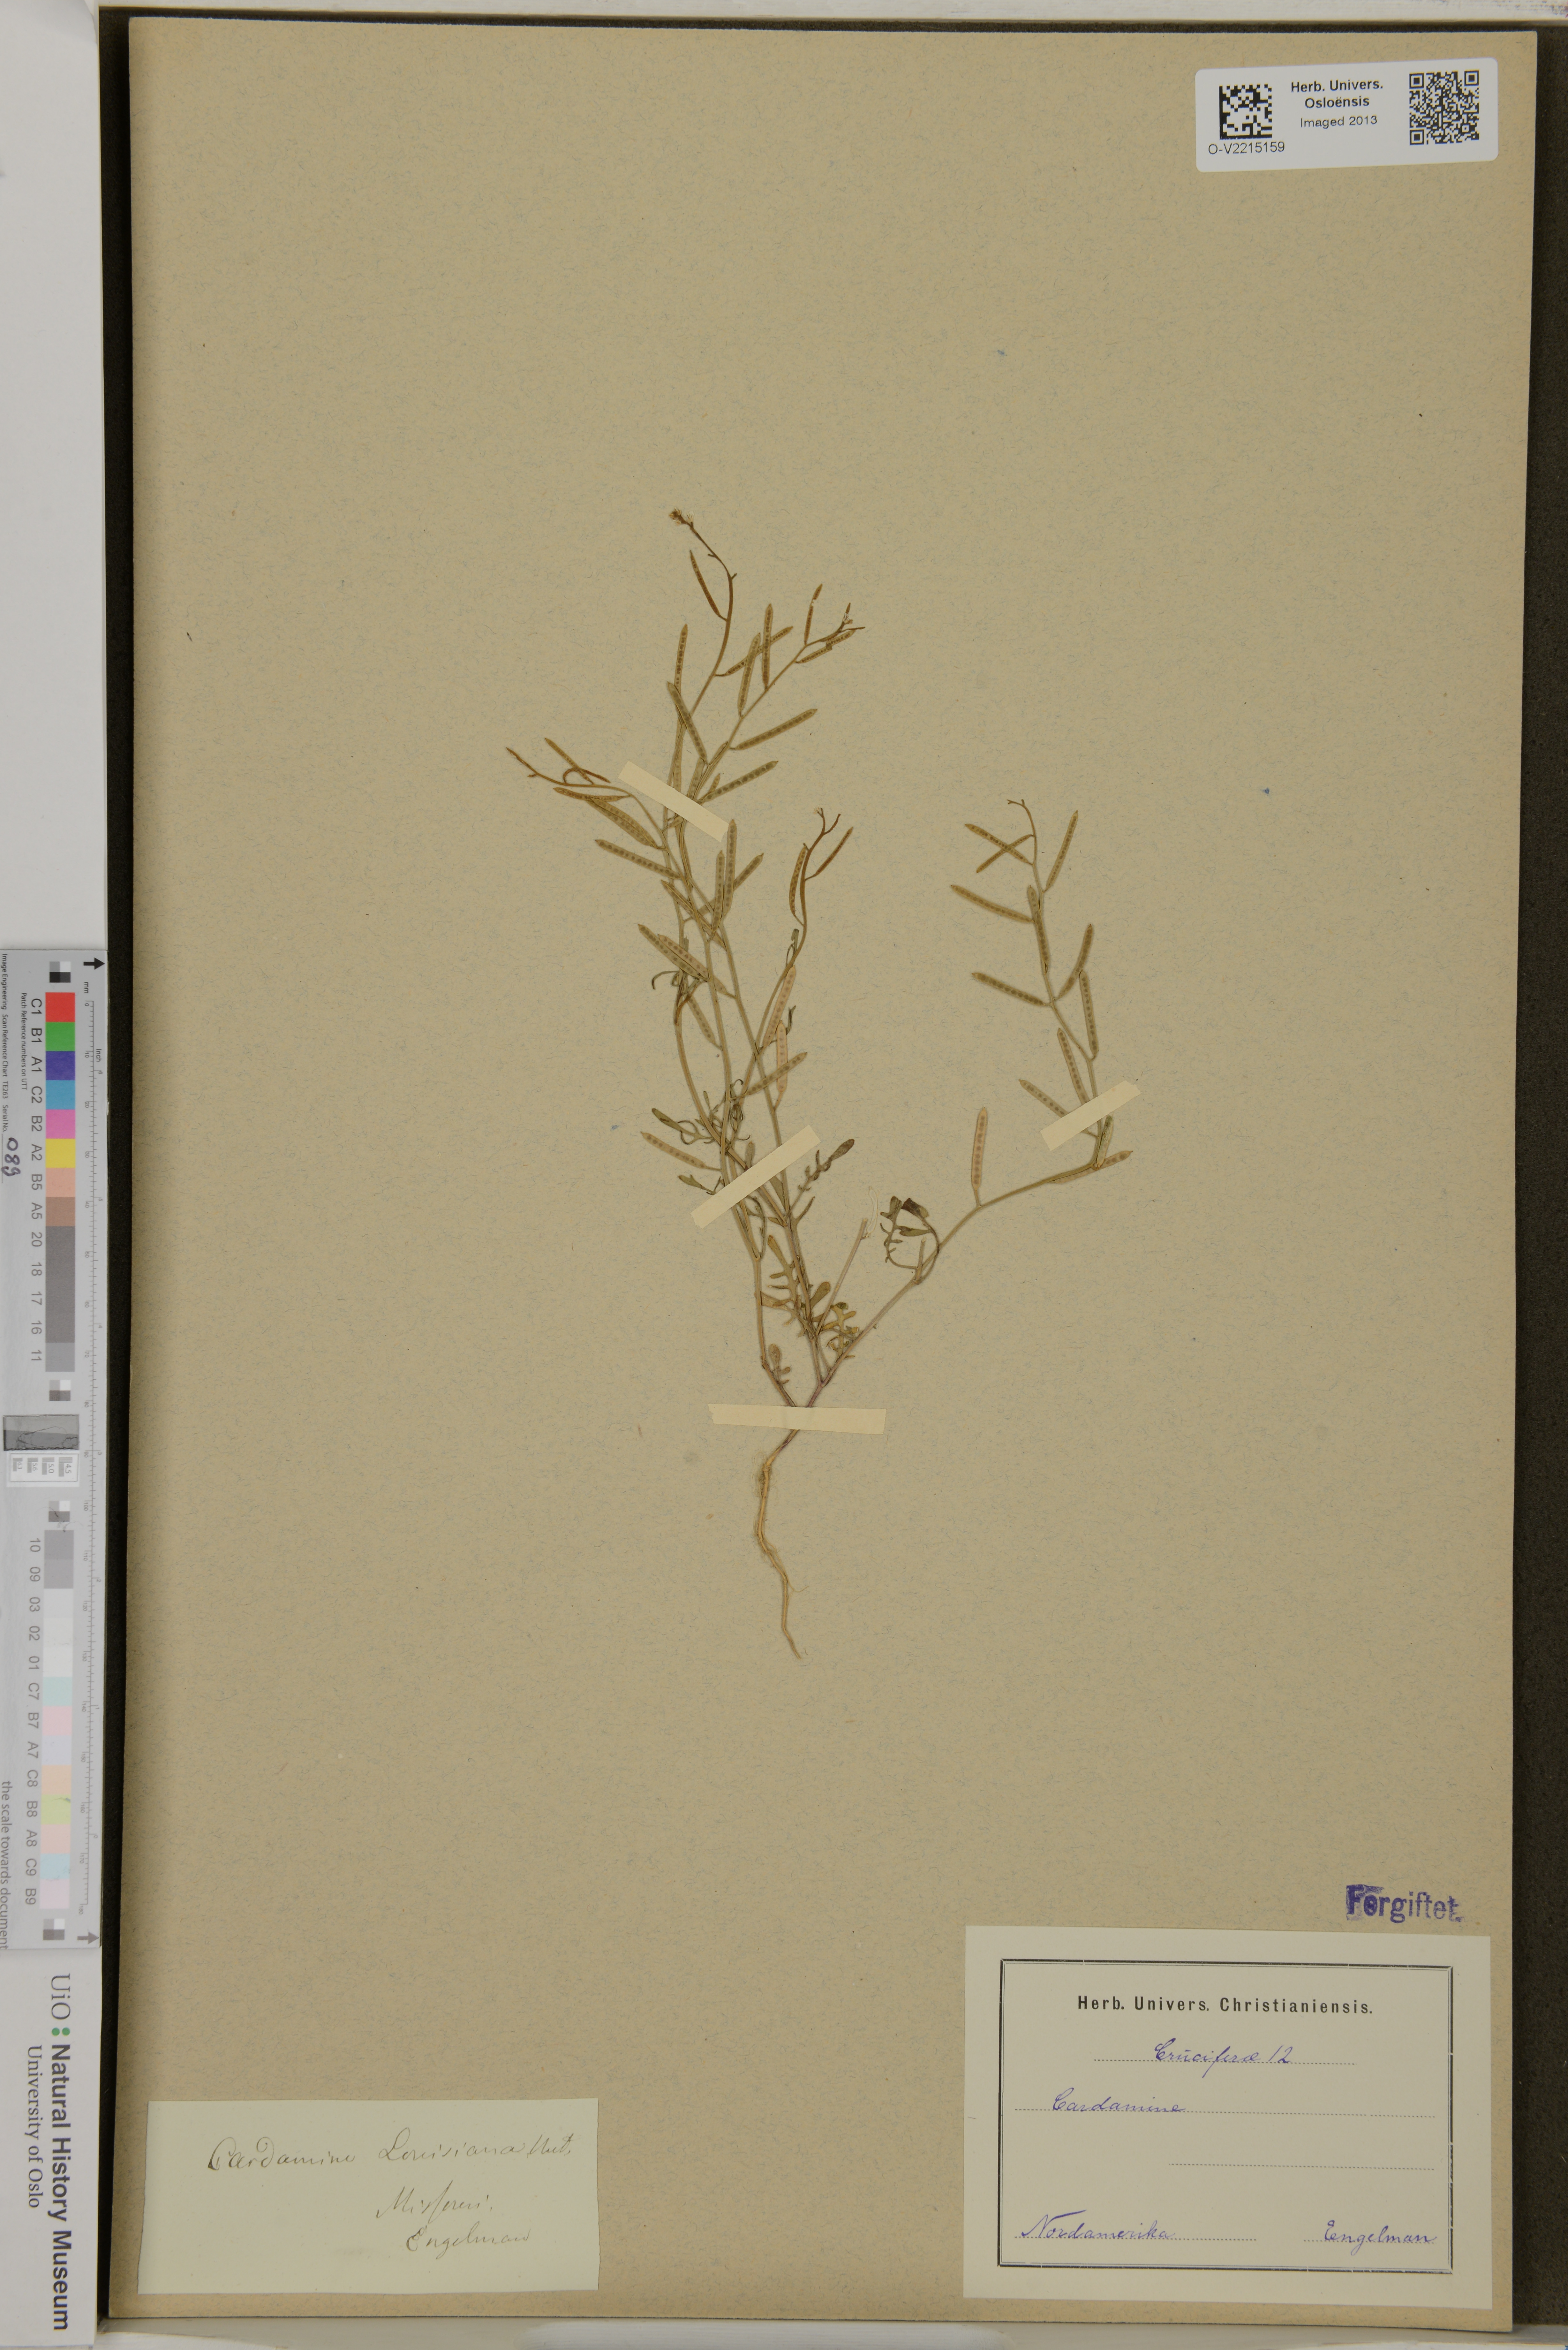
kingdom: Plantae
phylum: Tracheophyta
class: Magnoliopsida
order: Brassicales
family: Brassicaceae
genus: Cardamine
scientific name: Cardamine
